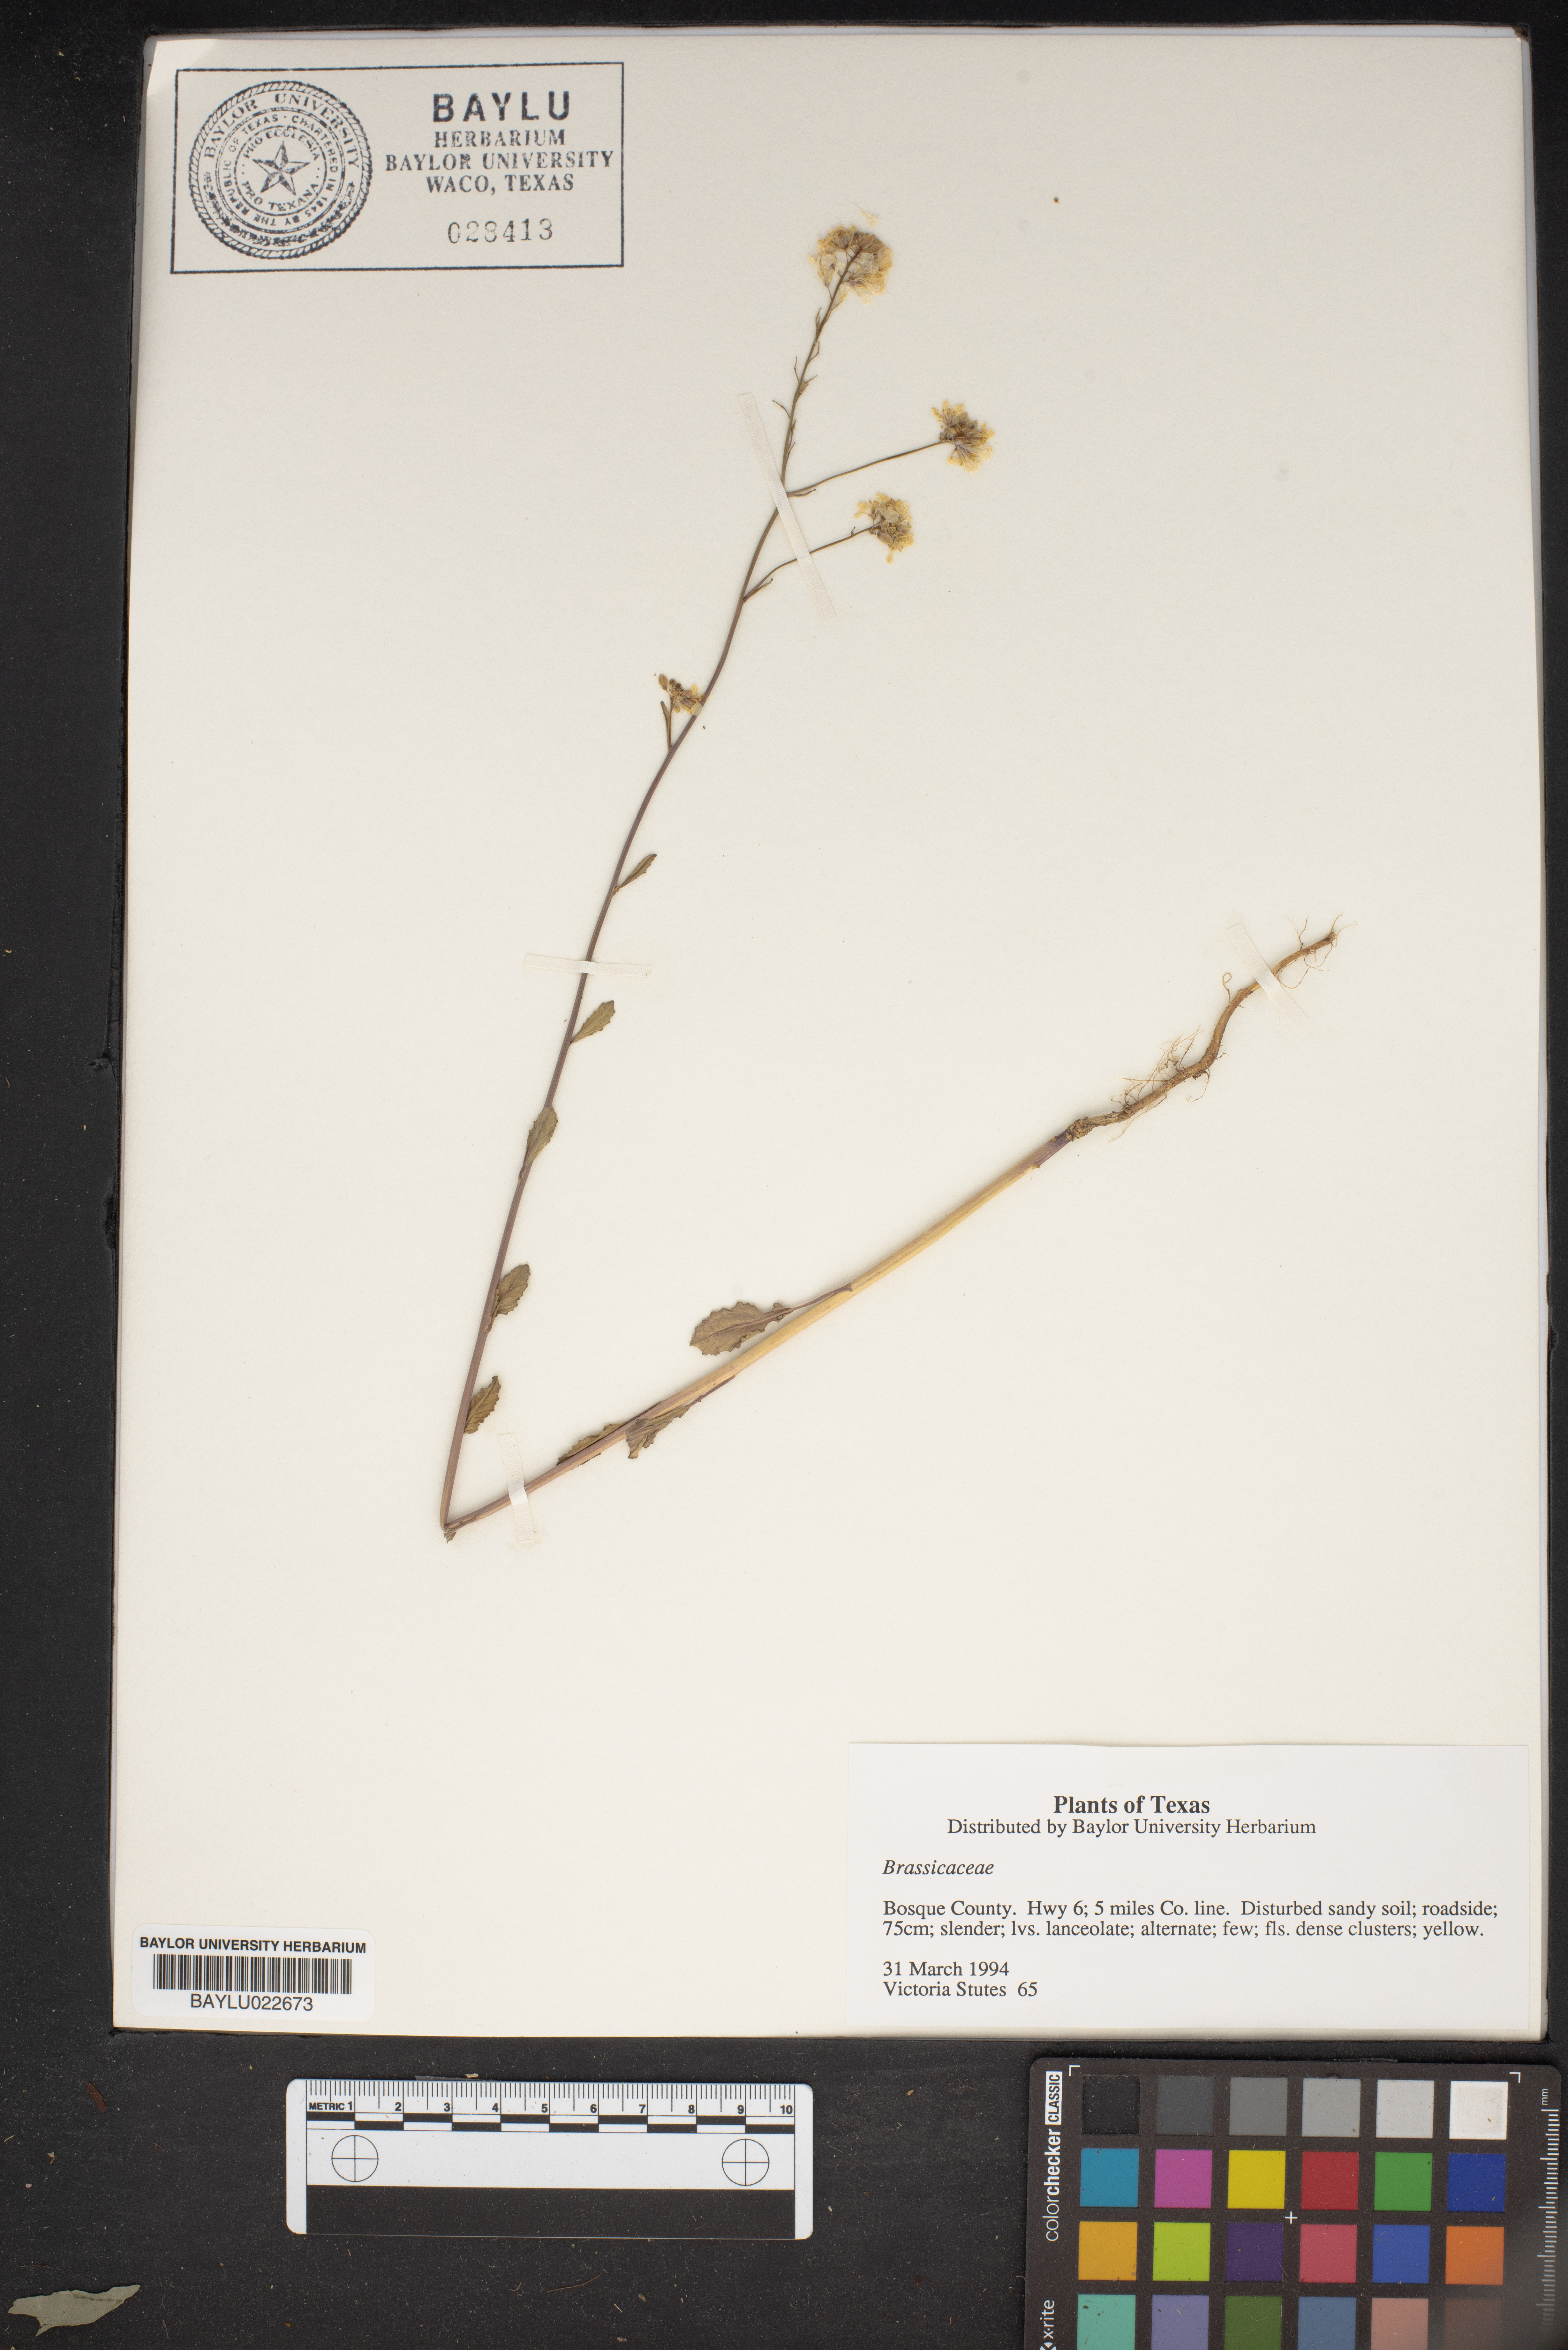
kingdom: Plantae
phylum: Tracheophyta
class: Magnoliopsida
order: Brassicales
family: Brassicaceae
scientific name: Brassicaceae
